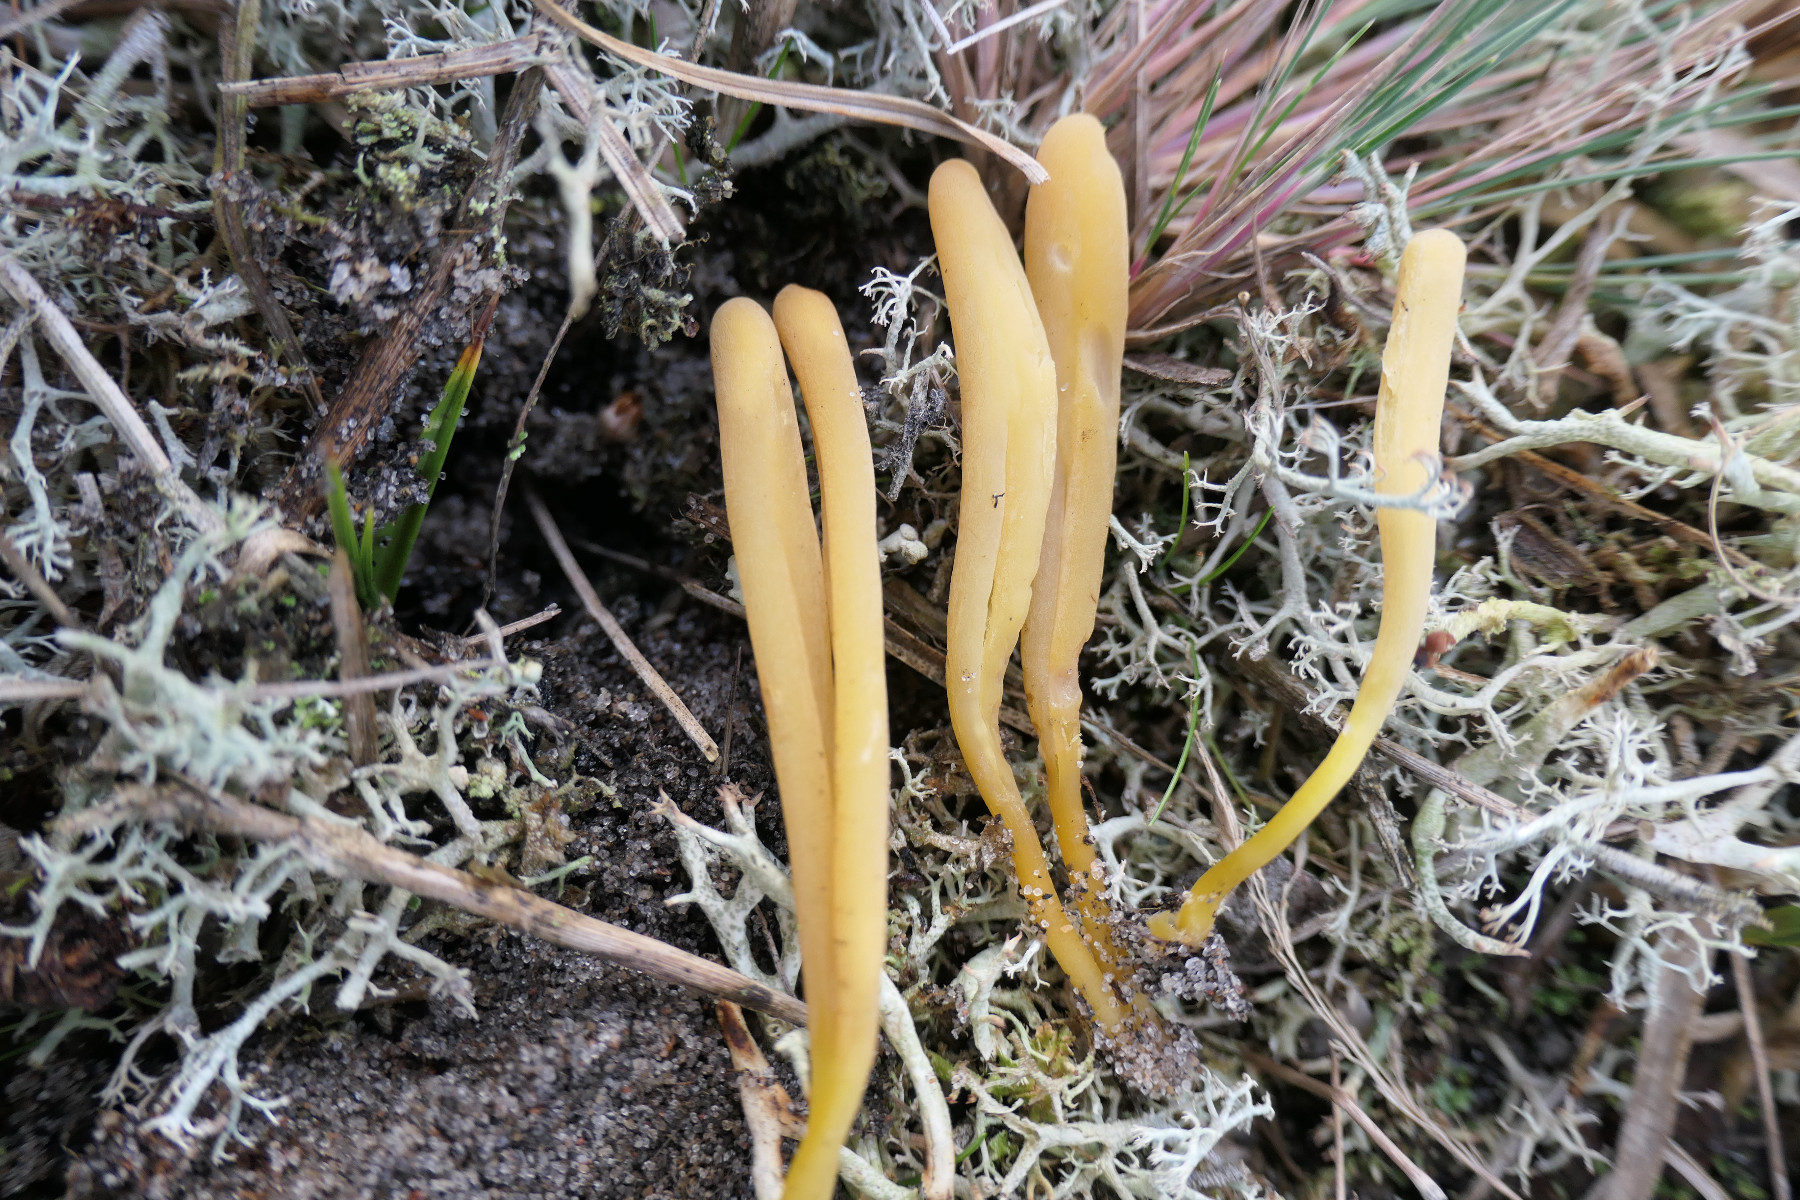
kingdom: Fungi
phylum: Basidiomycota
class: Agaricomycetes
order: Agaricales
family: Clavariaceae
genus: Clavaria
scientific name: Clavaria argillacea
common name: lerfarvet køllesvamp
